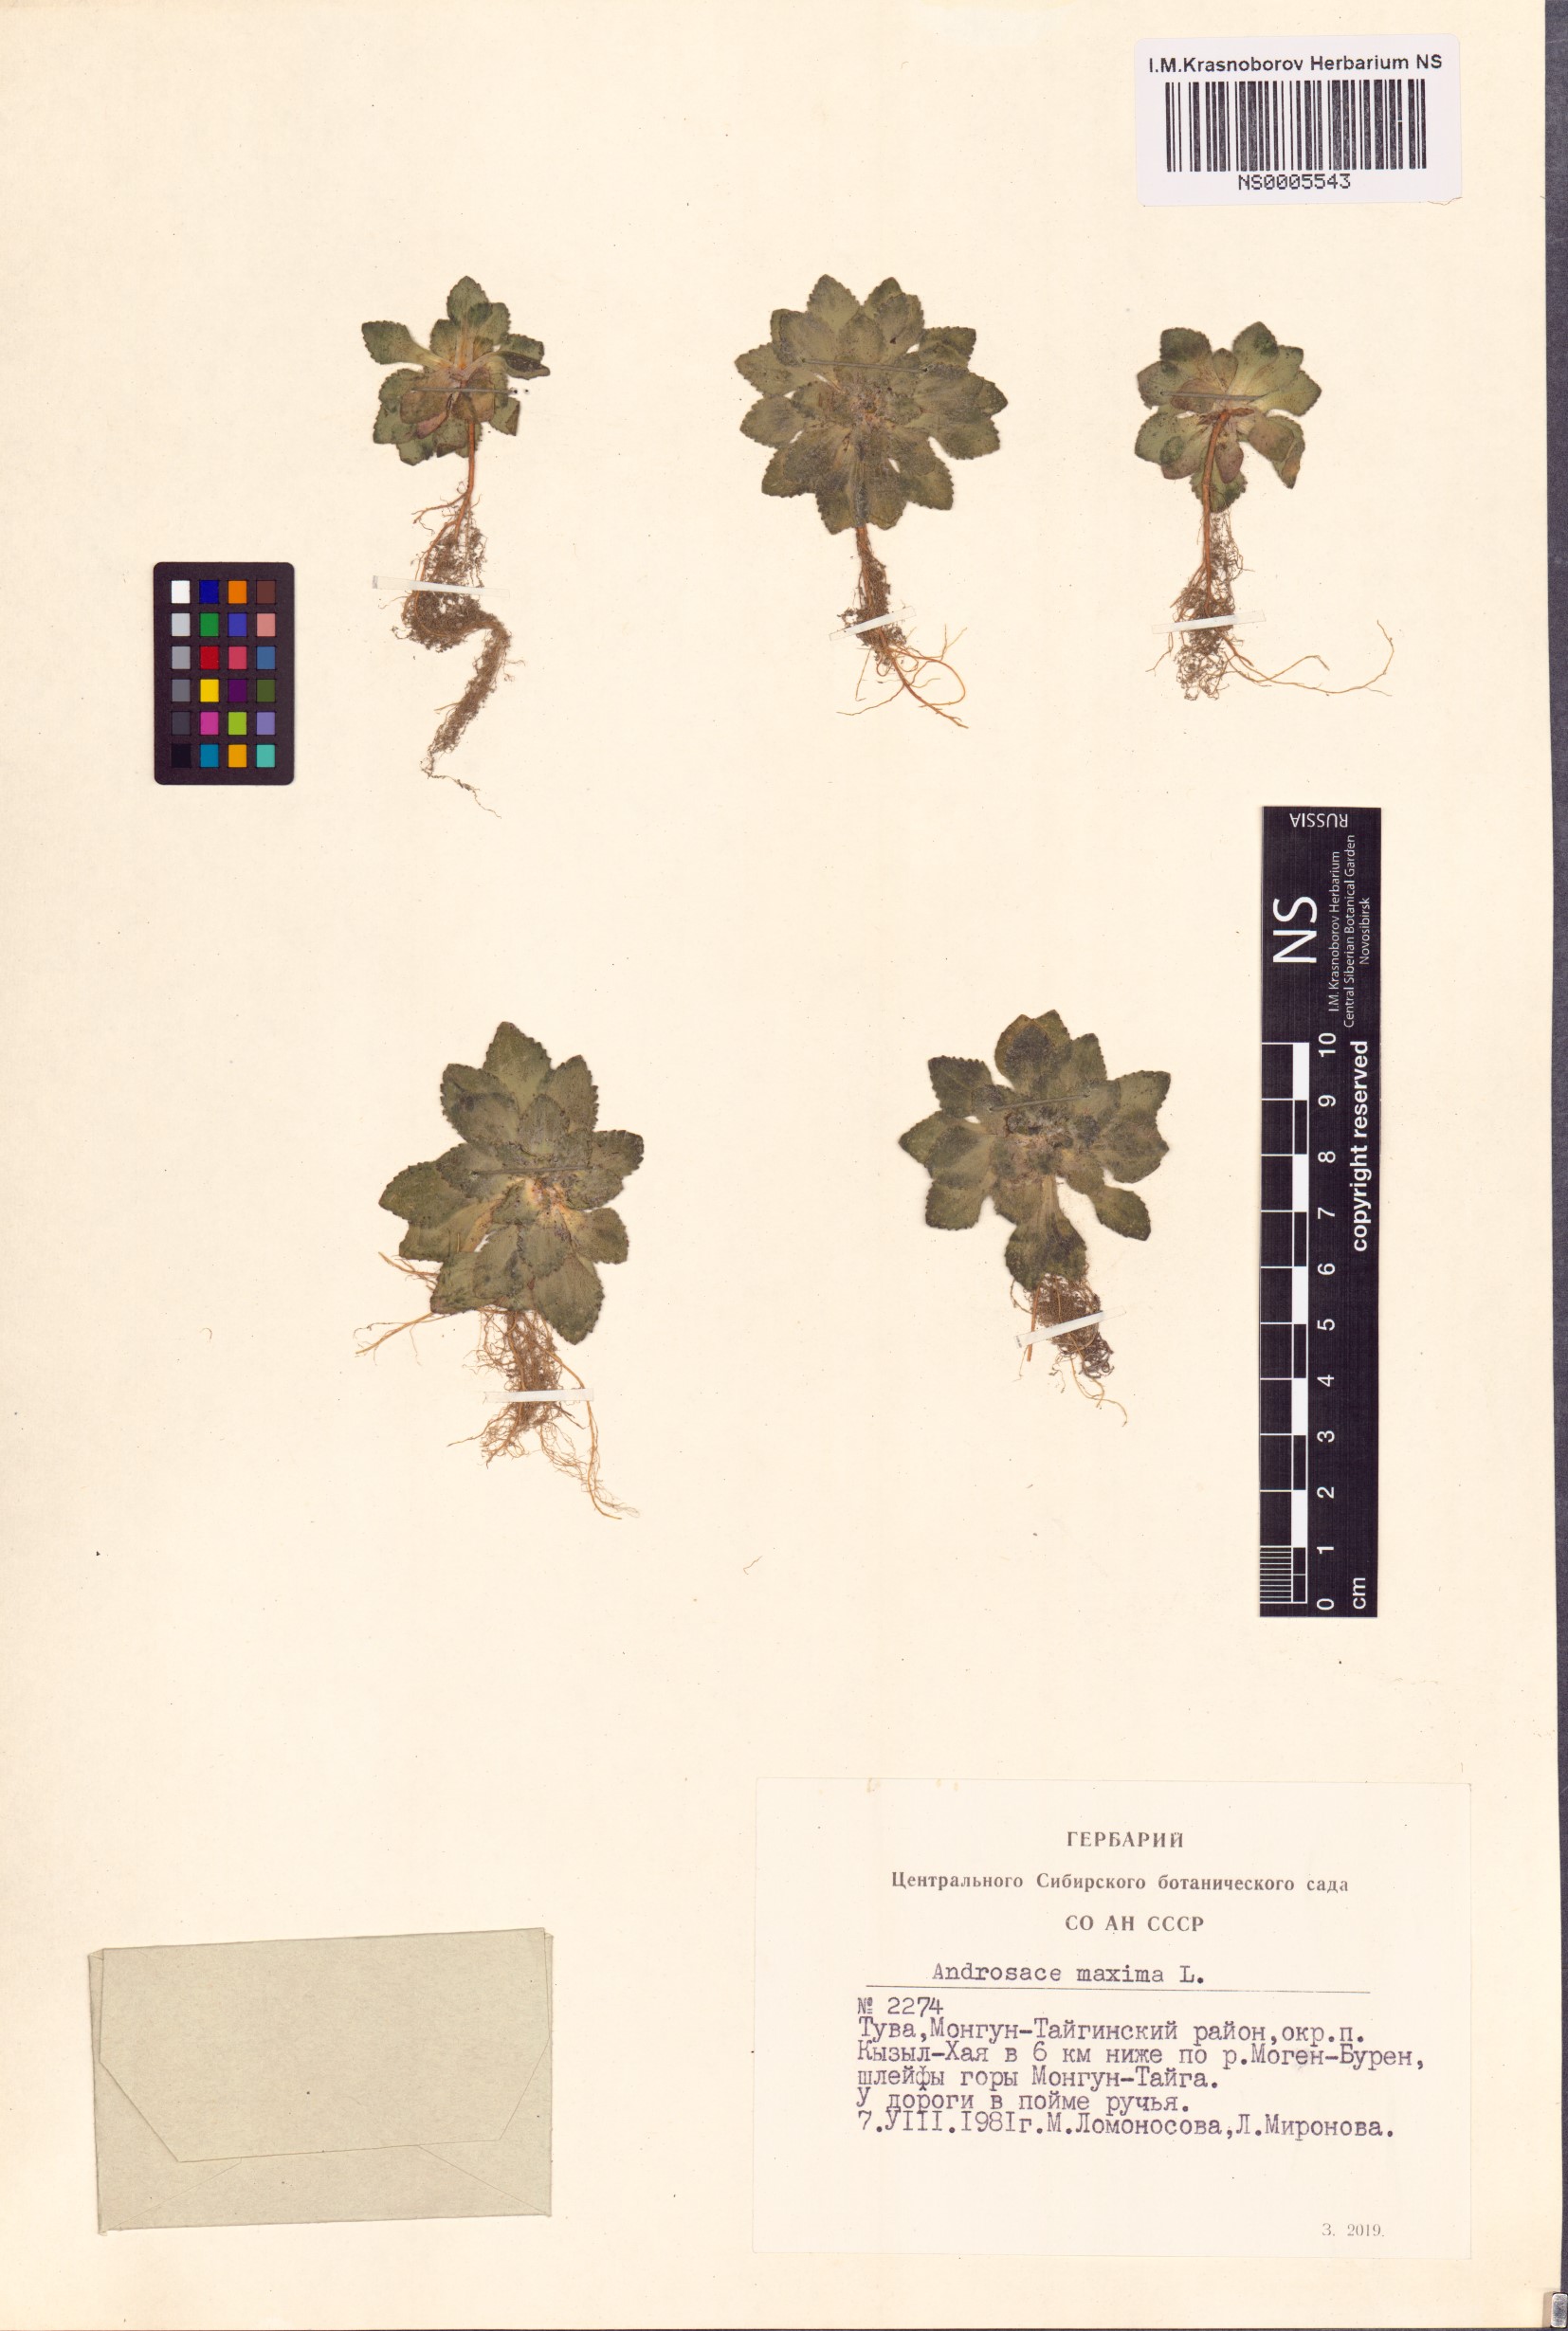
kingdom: Plantae
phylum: Tracheophyta
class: Magnoliopsida
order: Ericales
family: Primulaceae
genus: Androsace
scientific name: Androsace maxima
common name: Annual androsace
